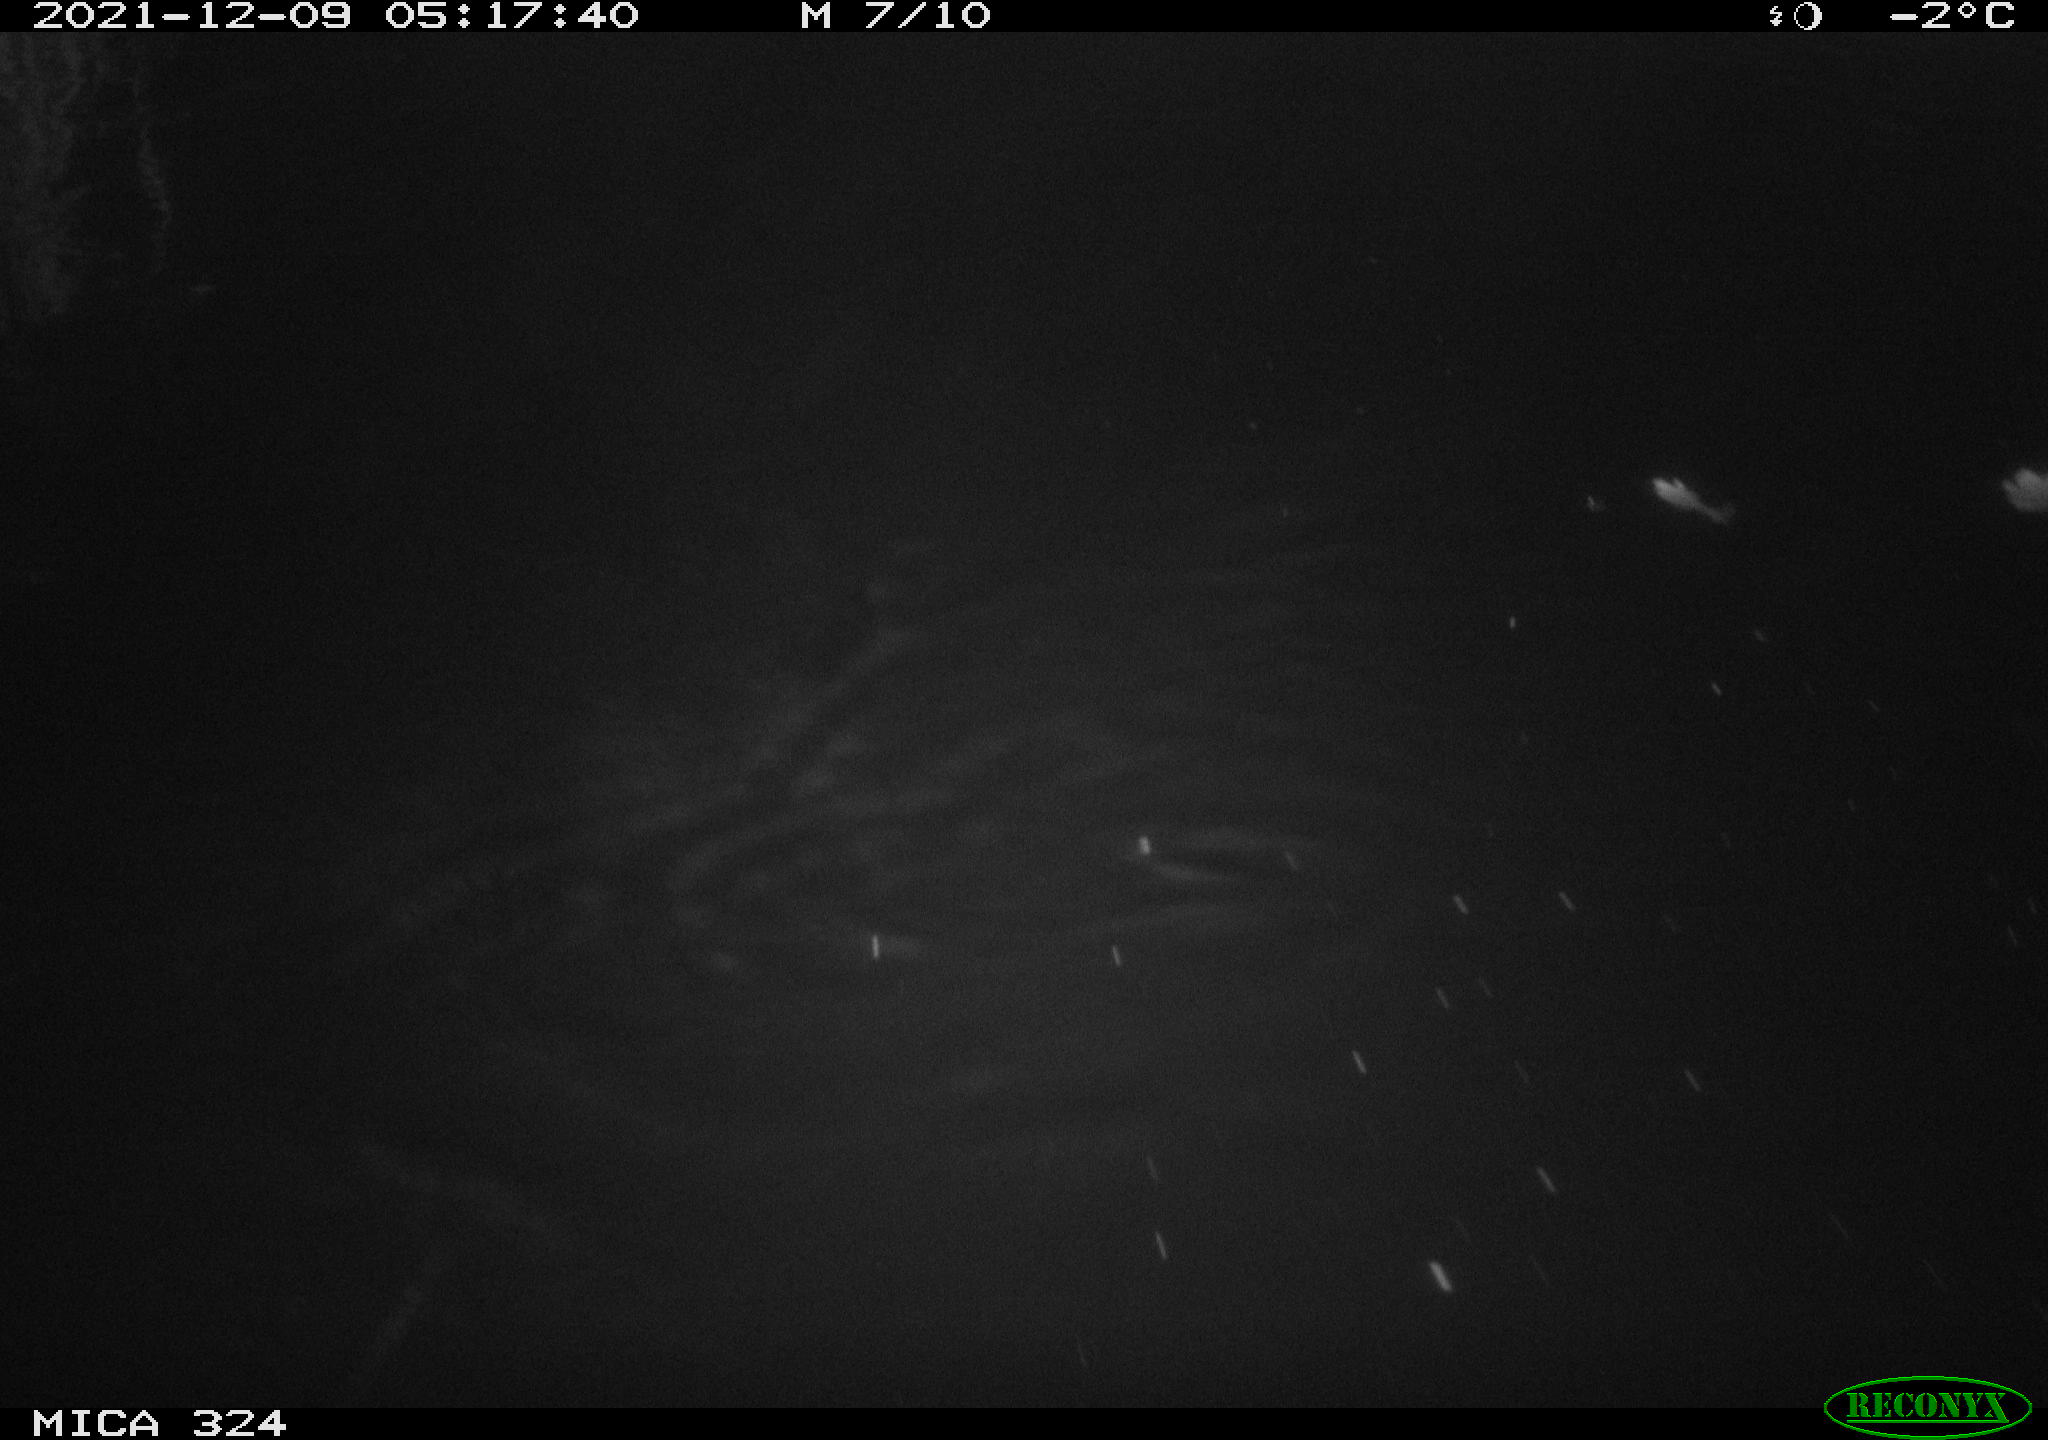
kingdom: Animalia
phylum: Chordata
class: Mammalia
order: Rodentia
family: Cricetidae
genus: Ondatra
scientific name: Ondatra zibethicus
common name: Muskrat
